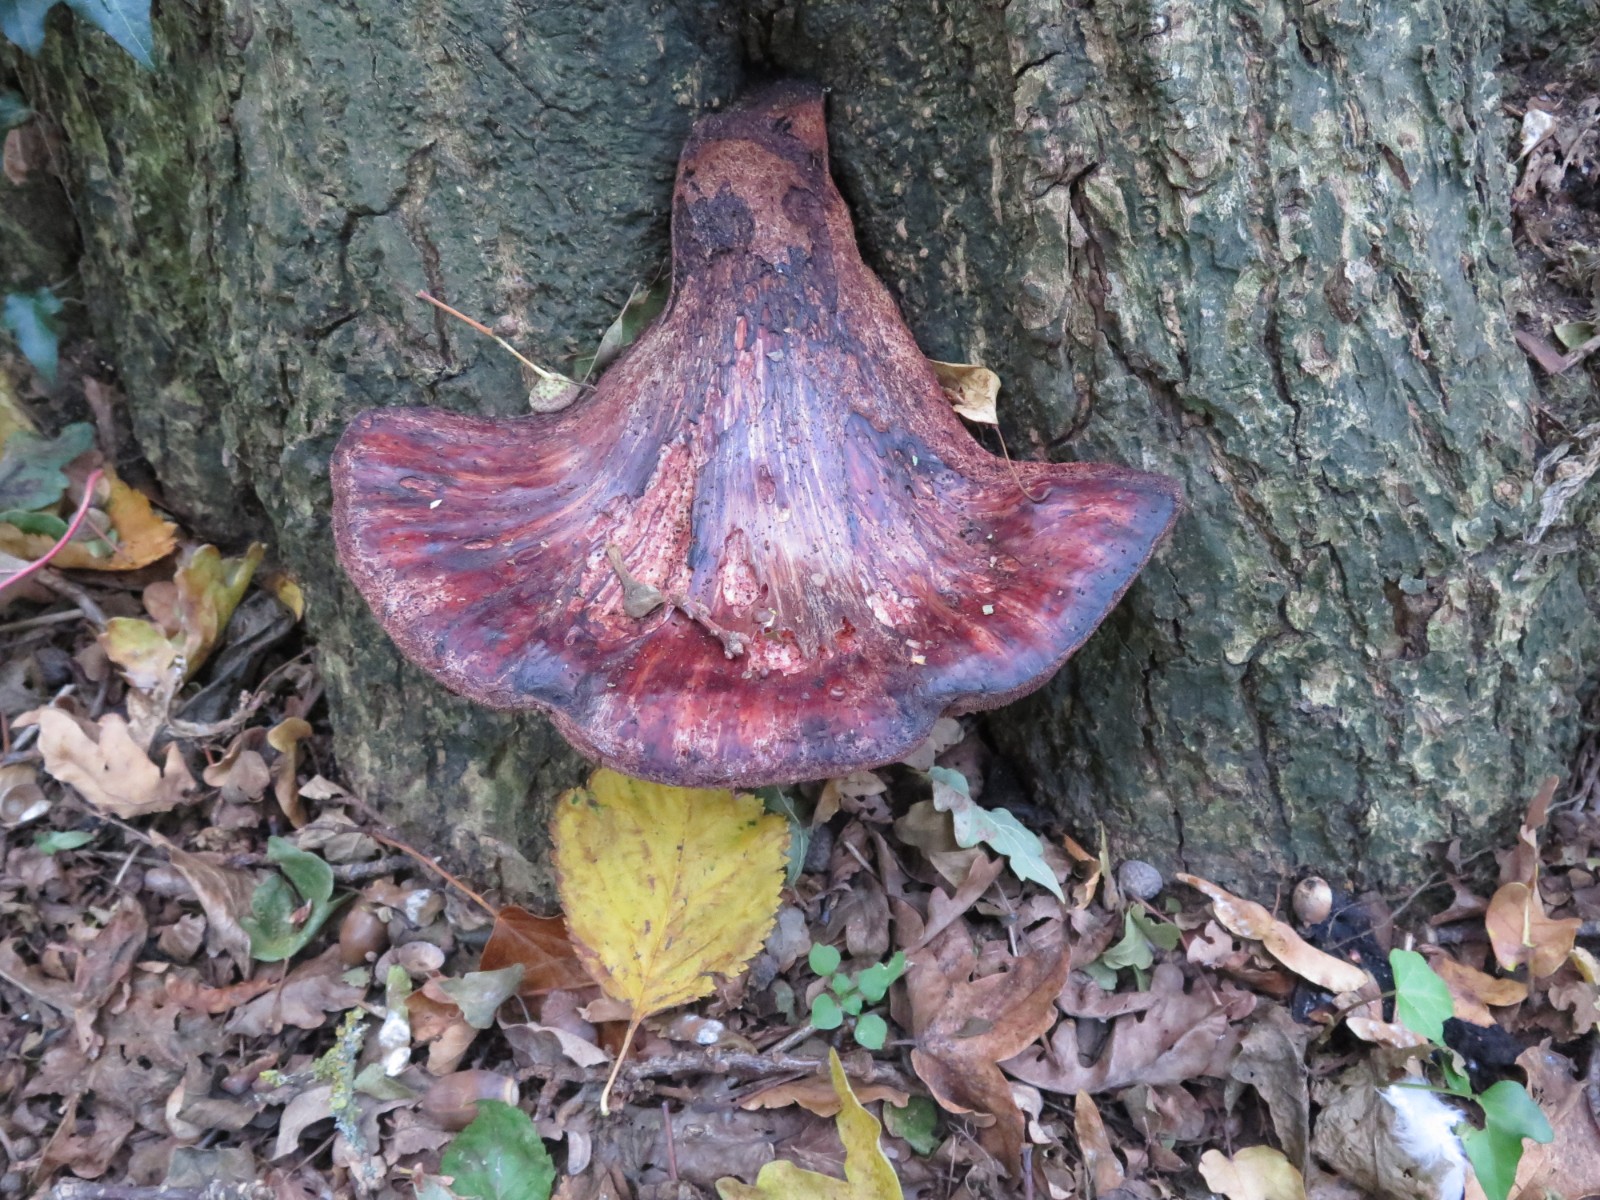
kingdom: Fungi
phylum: Basidiomycota
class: Agaricomycetes
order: Agaricales
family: Fistulinaceae
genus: Fistulina
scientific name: Fistulina hepatica
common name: oksetunge
